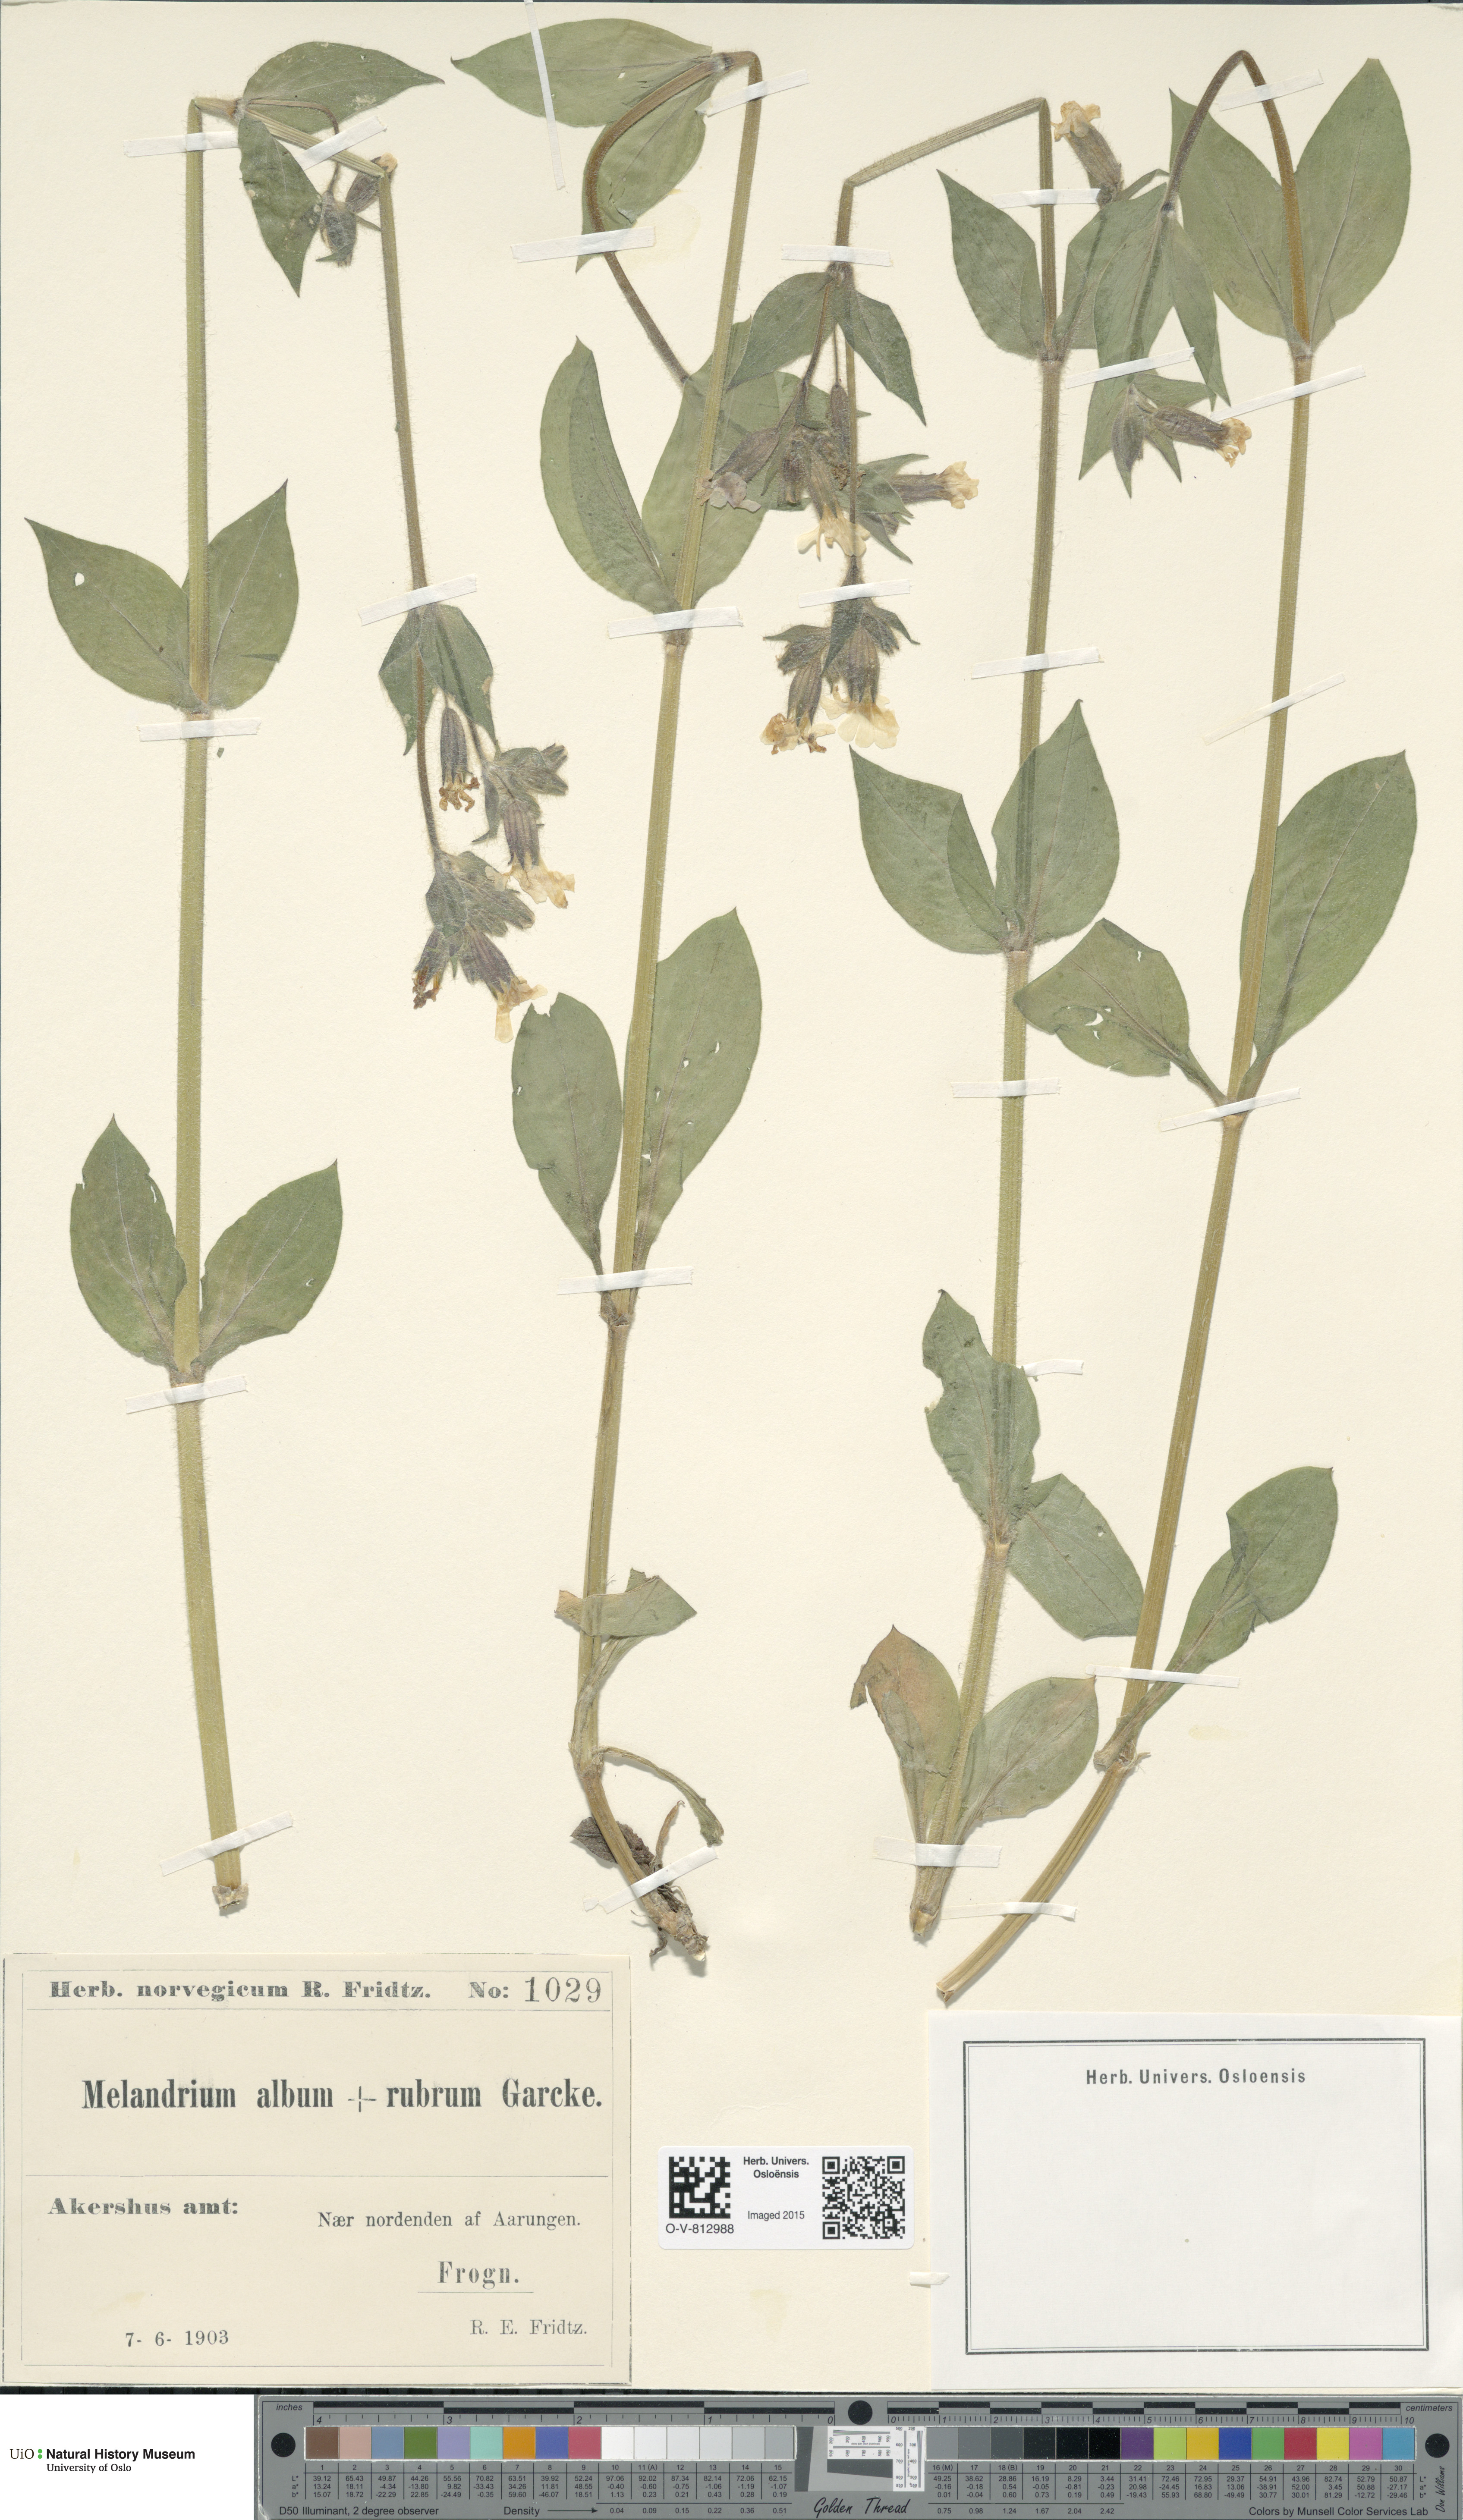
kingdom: Plantae
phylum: Tracheophyta
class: Magnoliopsida
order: Caryophyllales
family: Caryophyllaceae
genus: Silene
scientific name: Silene
